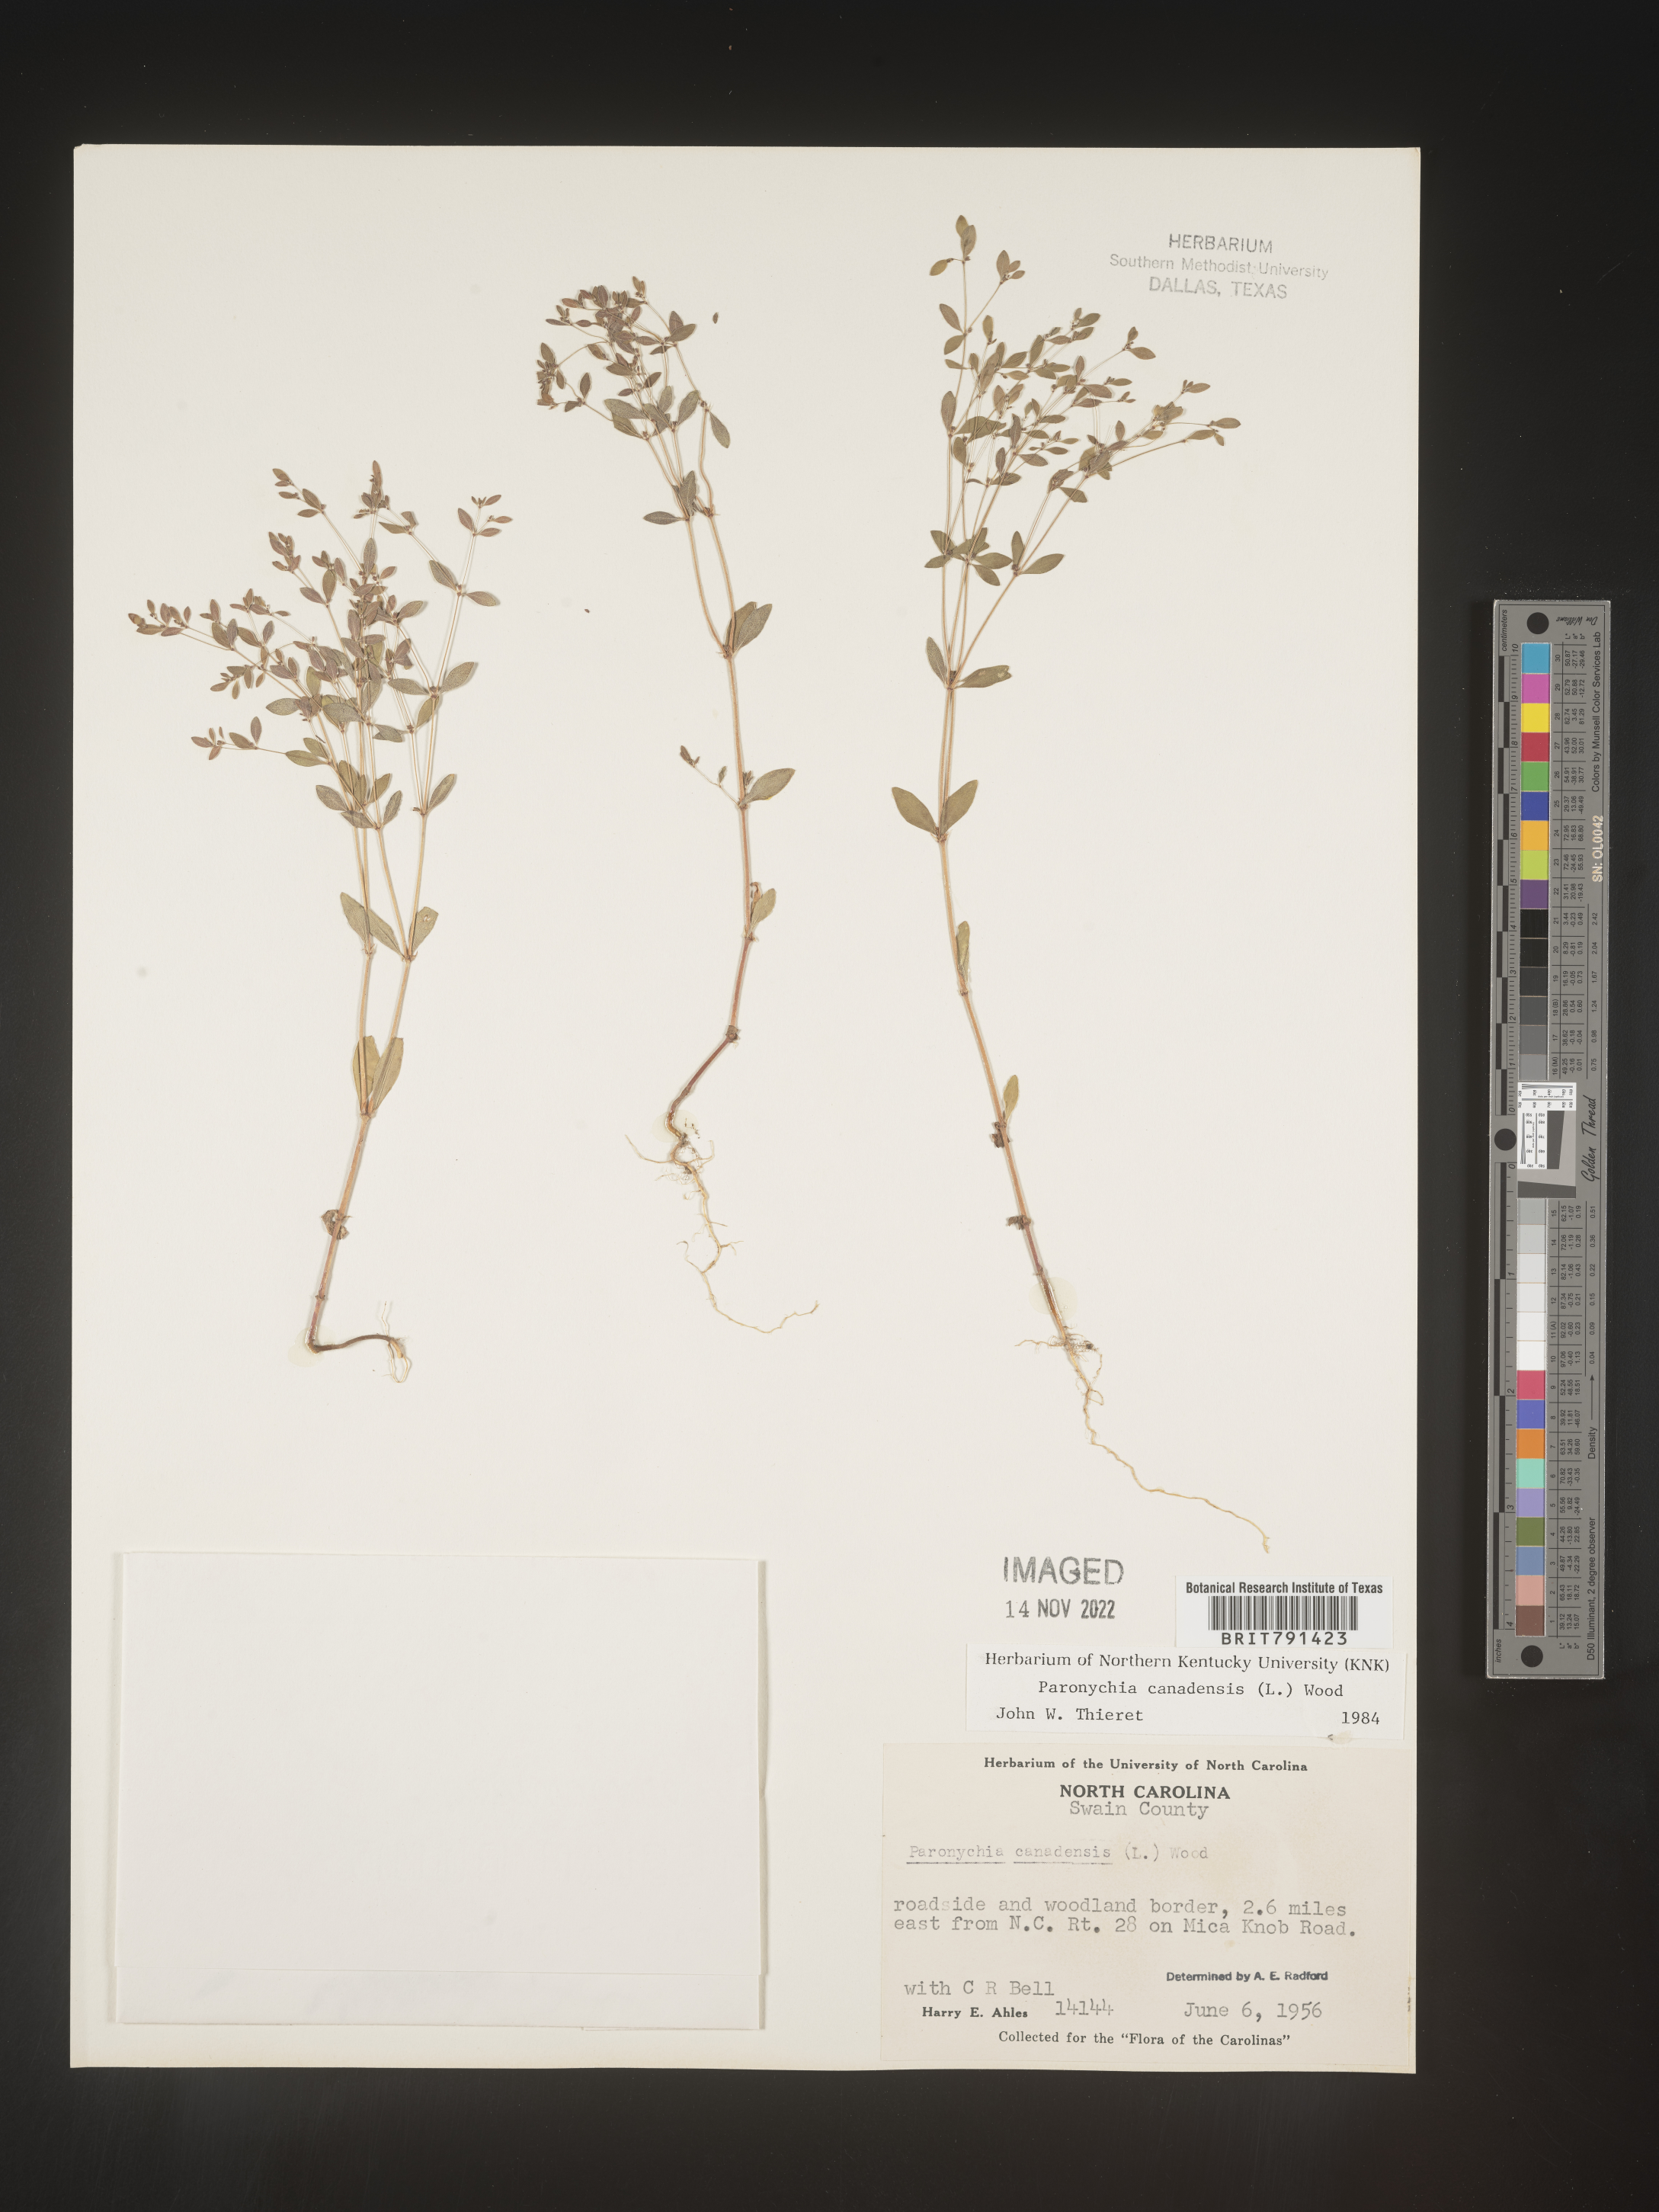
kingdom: Plantae
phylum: Tracheophyta
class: Magnoliopsida
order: Caryophyllales
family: Caryophyllaceae
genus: Paronychia
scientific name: Paronychia canadensis
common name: Canada forked nailwort
